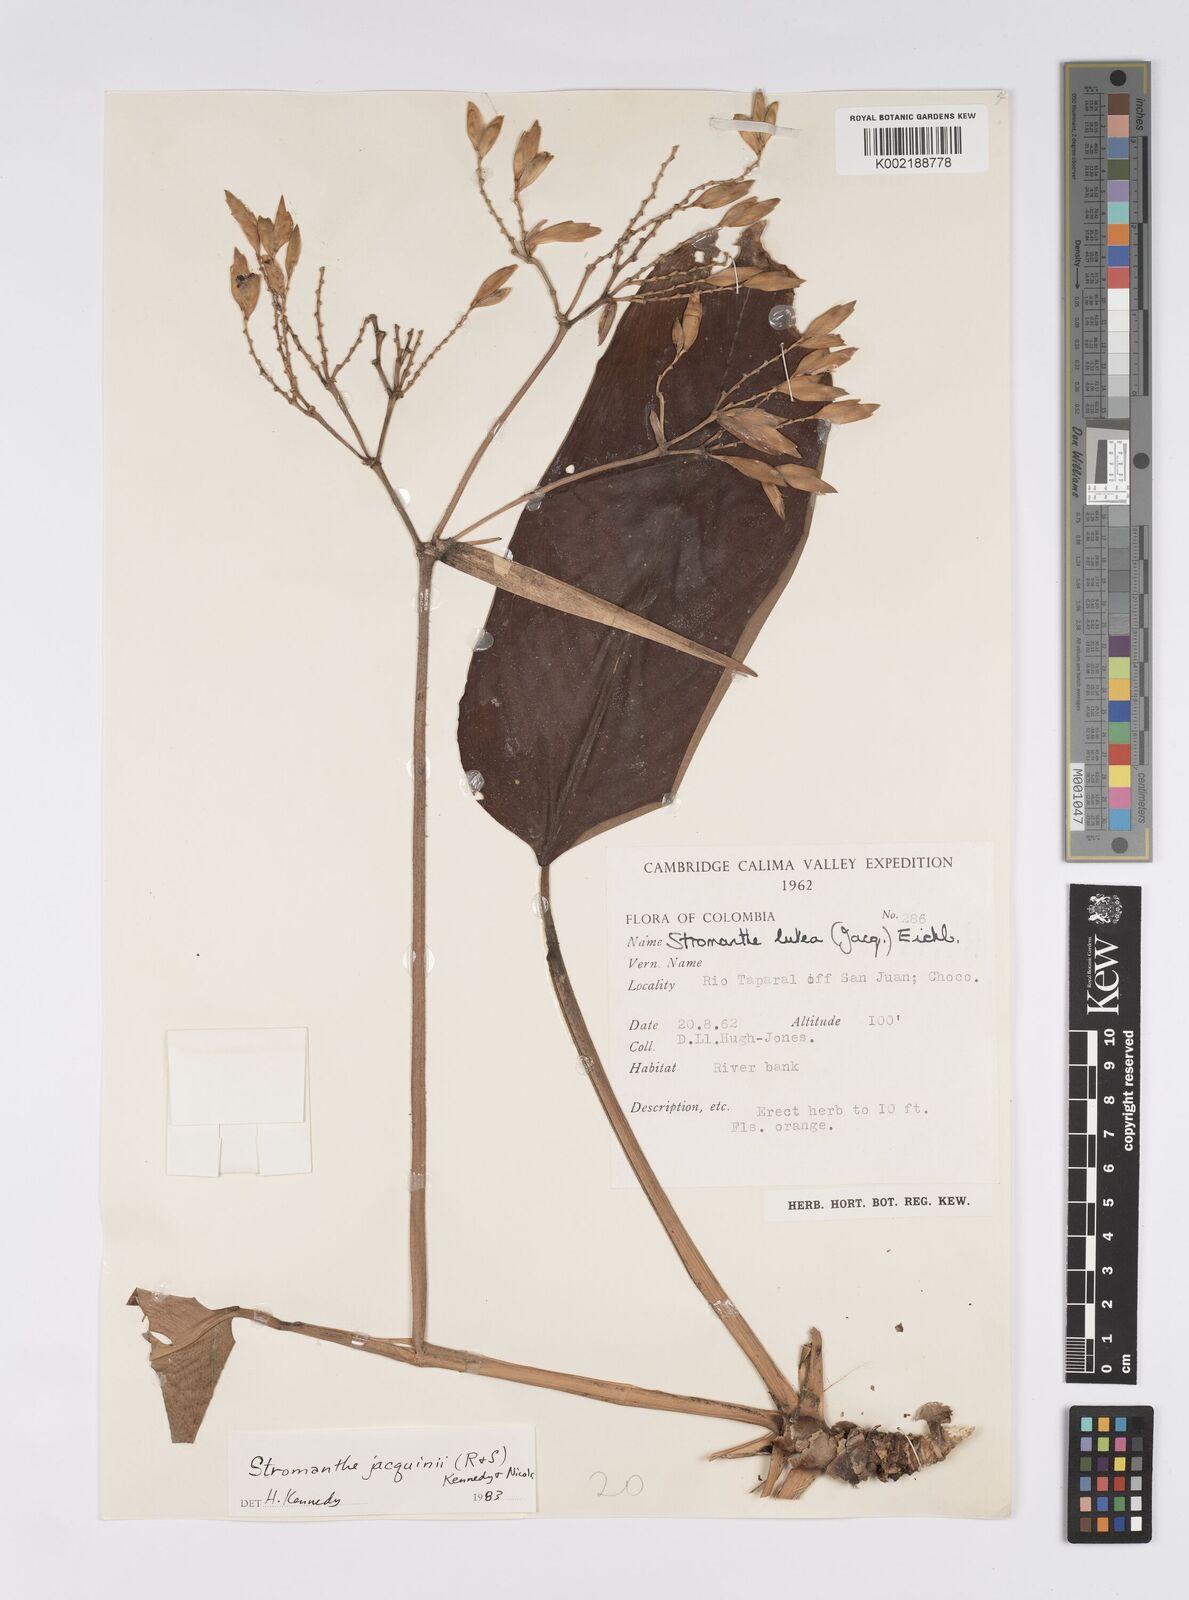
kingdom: Plantae
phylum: Tracheophyta
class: Liliopsida
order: Zingiberales
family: Marantaceae
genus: Stromanthe
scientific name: Stromanthe jacquinii
